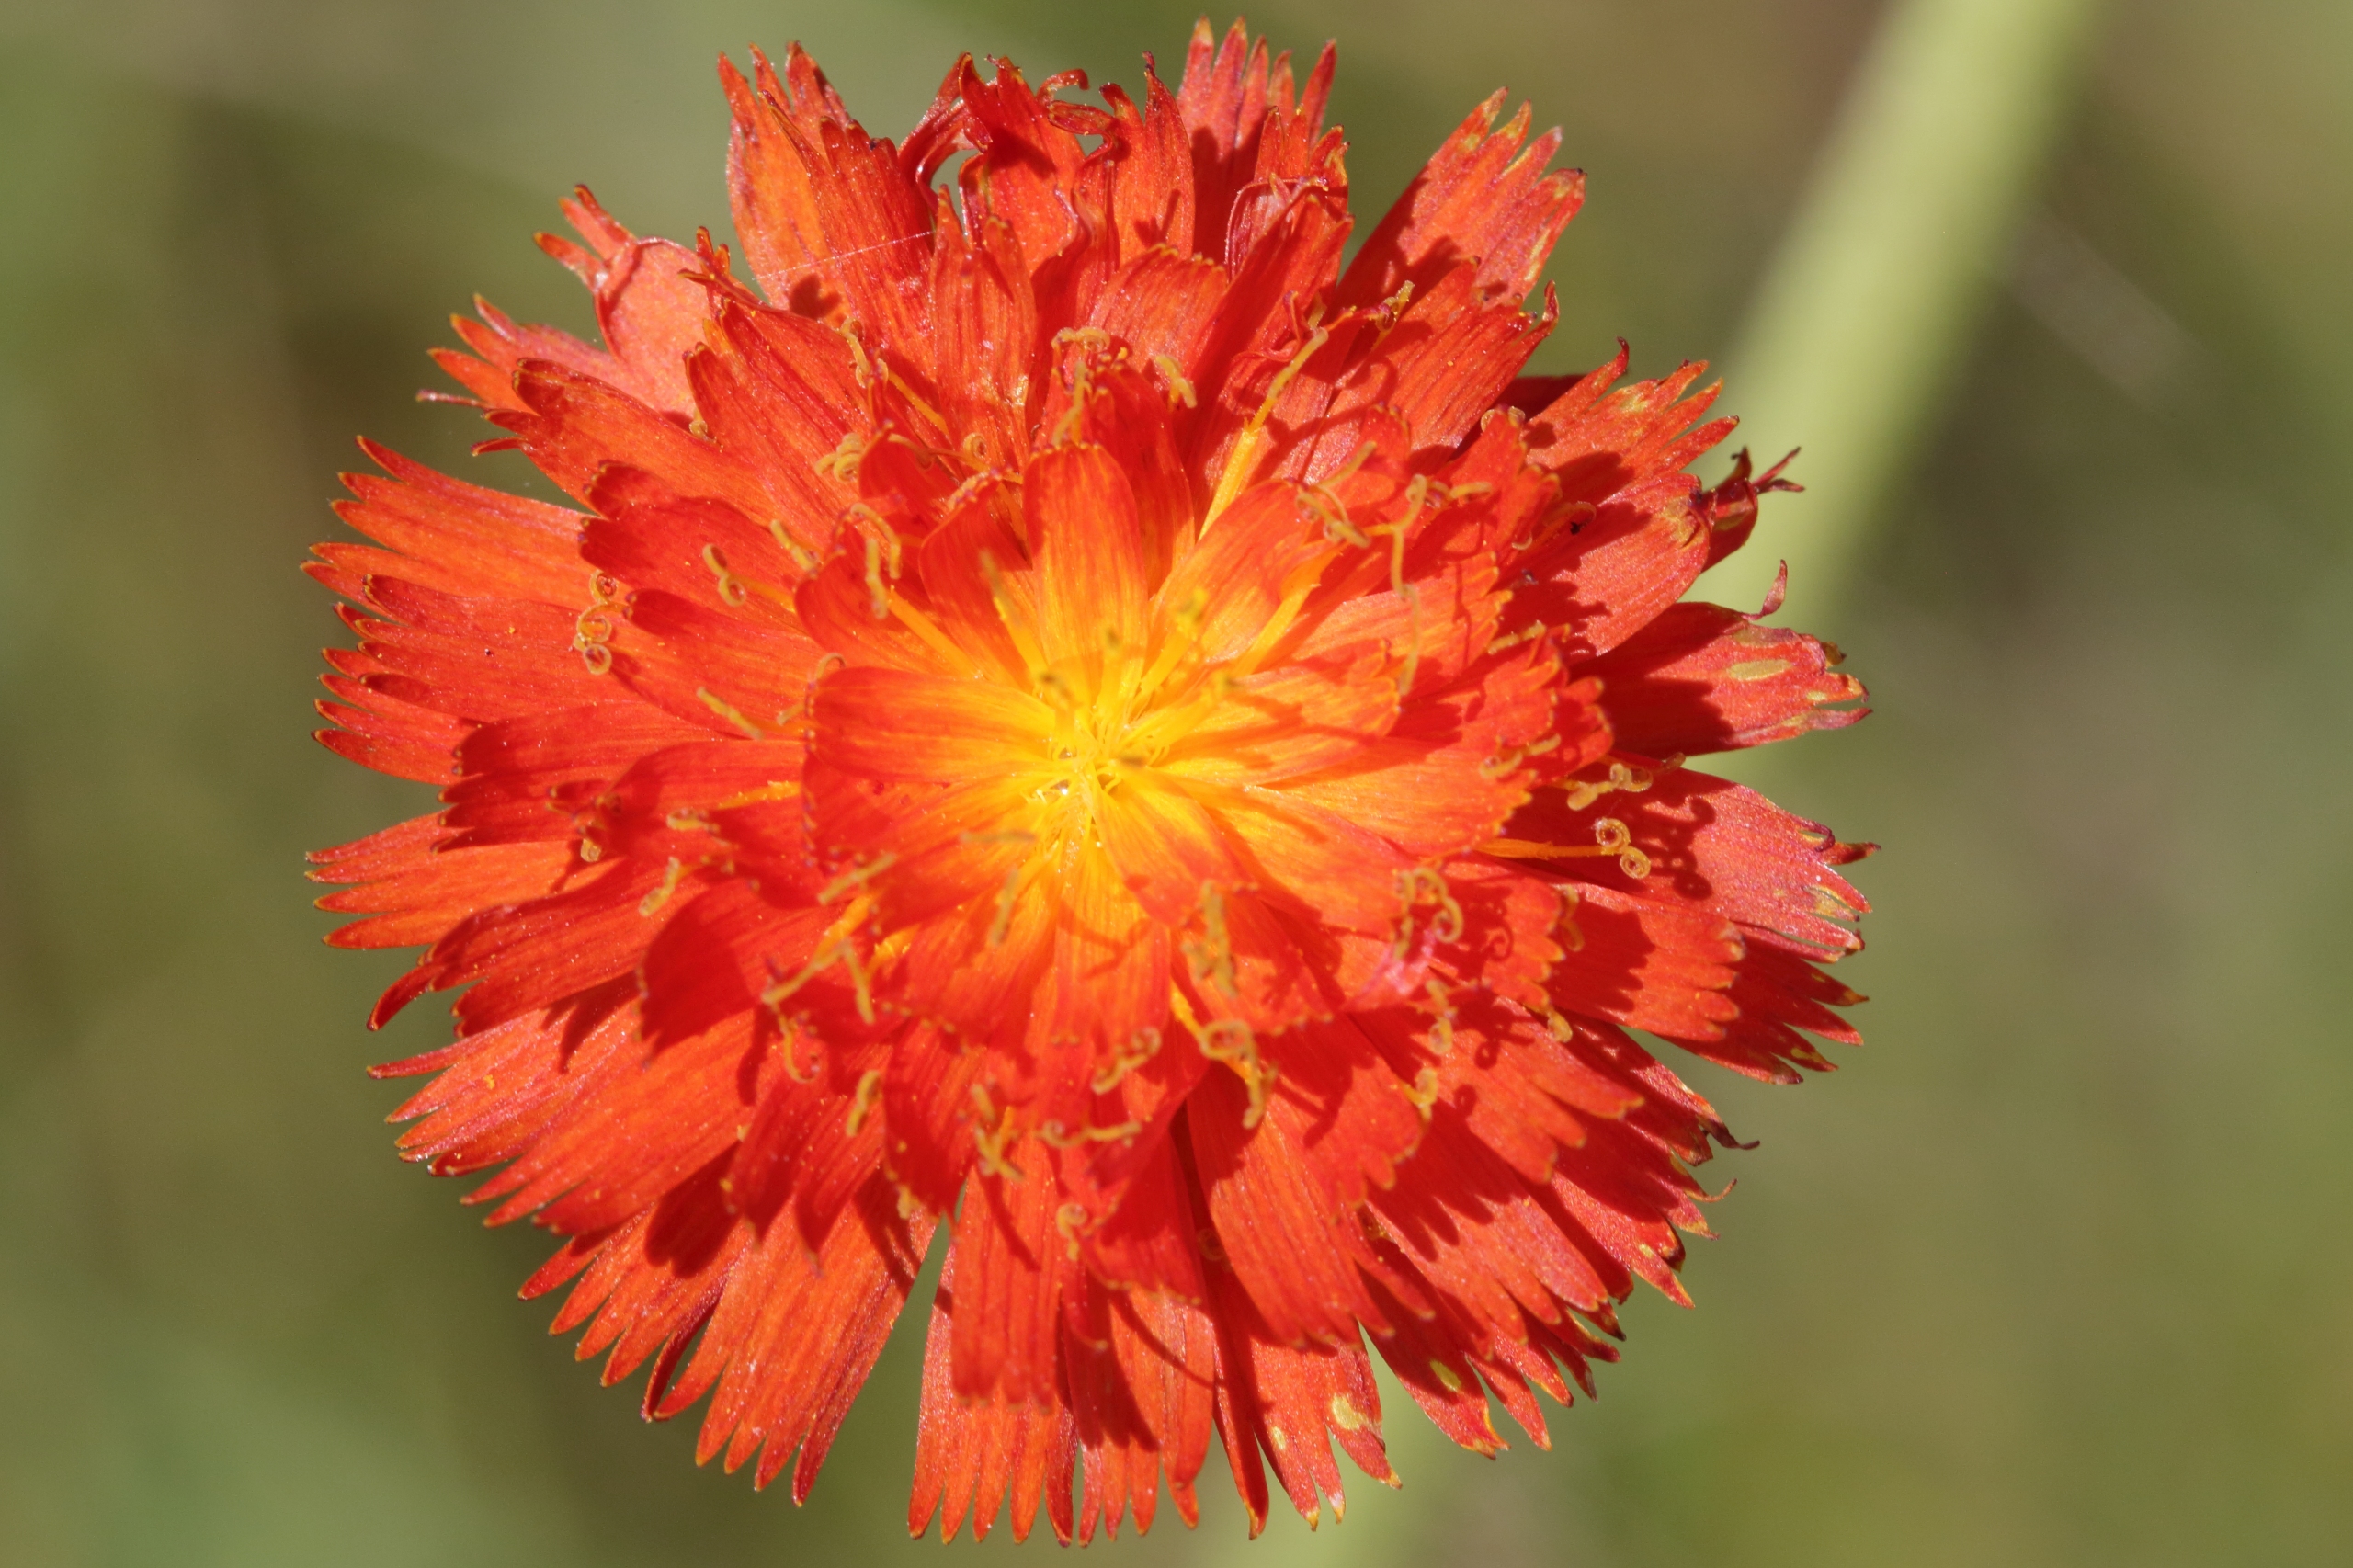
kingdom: Plantae
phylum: Tracheophyta
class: Magnoliopsida
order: Asterales
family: Asteraceae
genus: Pilosella
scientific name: Pilosella aurantiaca
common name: Pomerans-høgeurt
